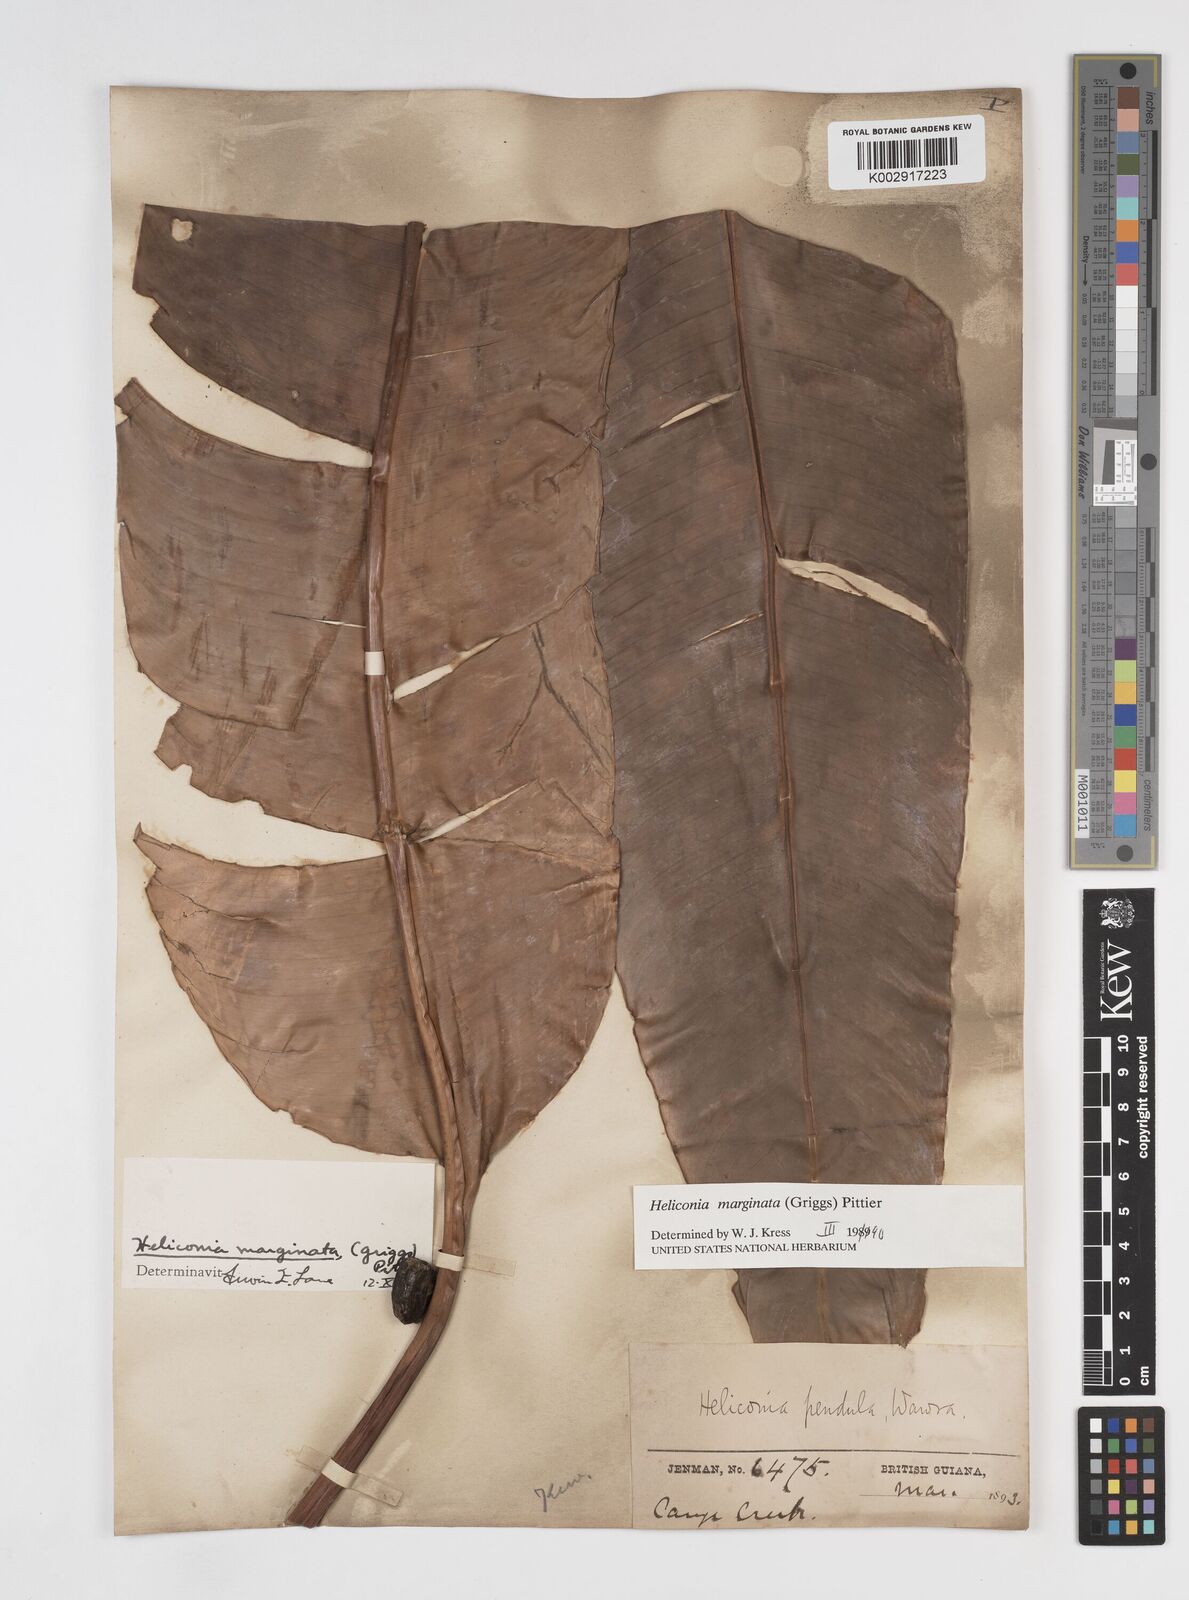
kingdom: Plantae
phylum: Tracheophyta
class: Liliopsida
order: Zingiberales
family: Heliconiaceae
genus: Heliconia
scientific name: Heliconia marginata
